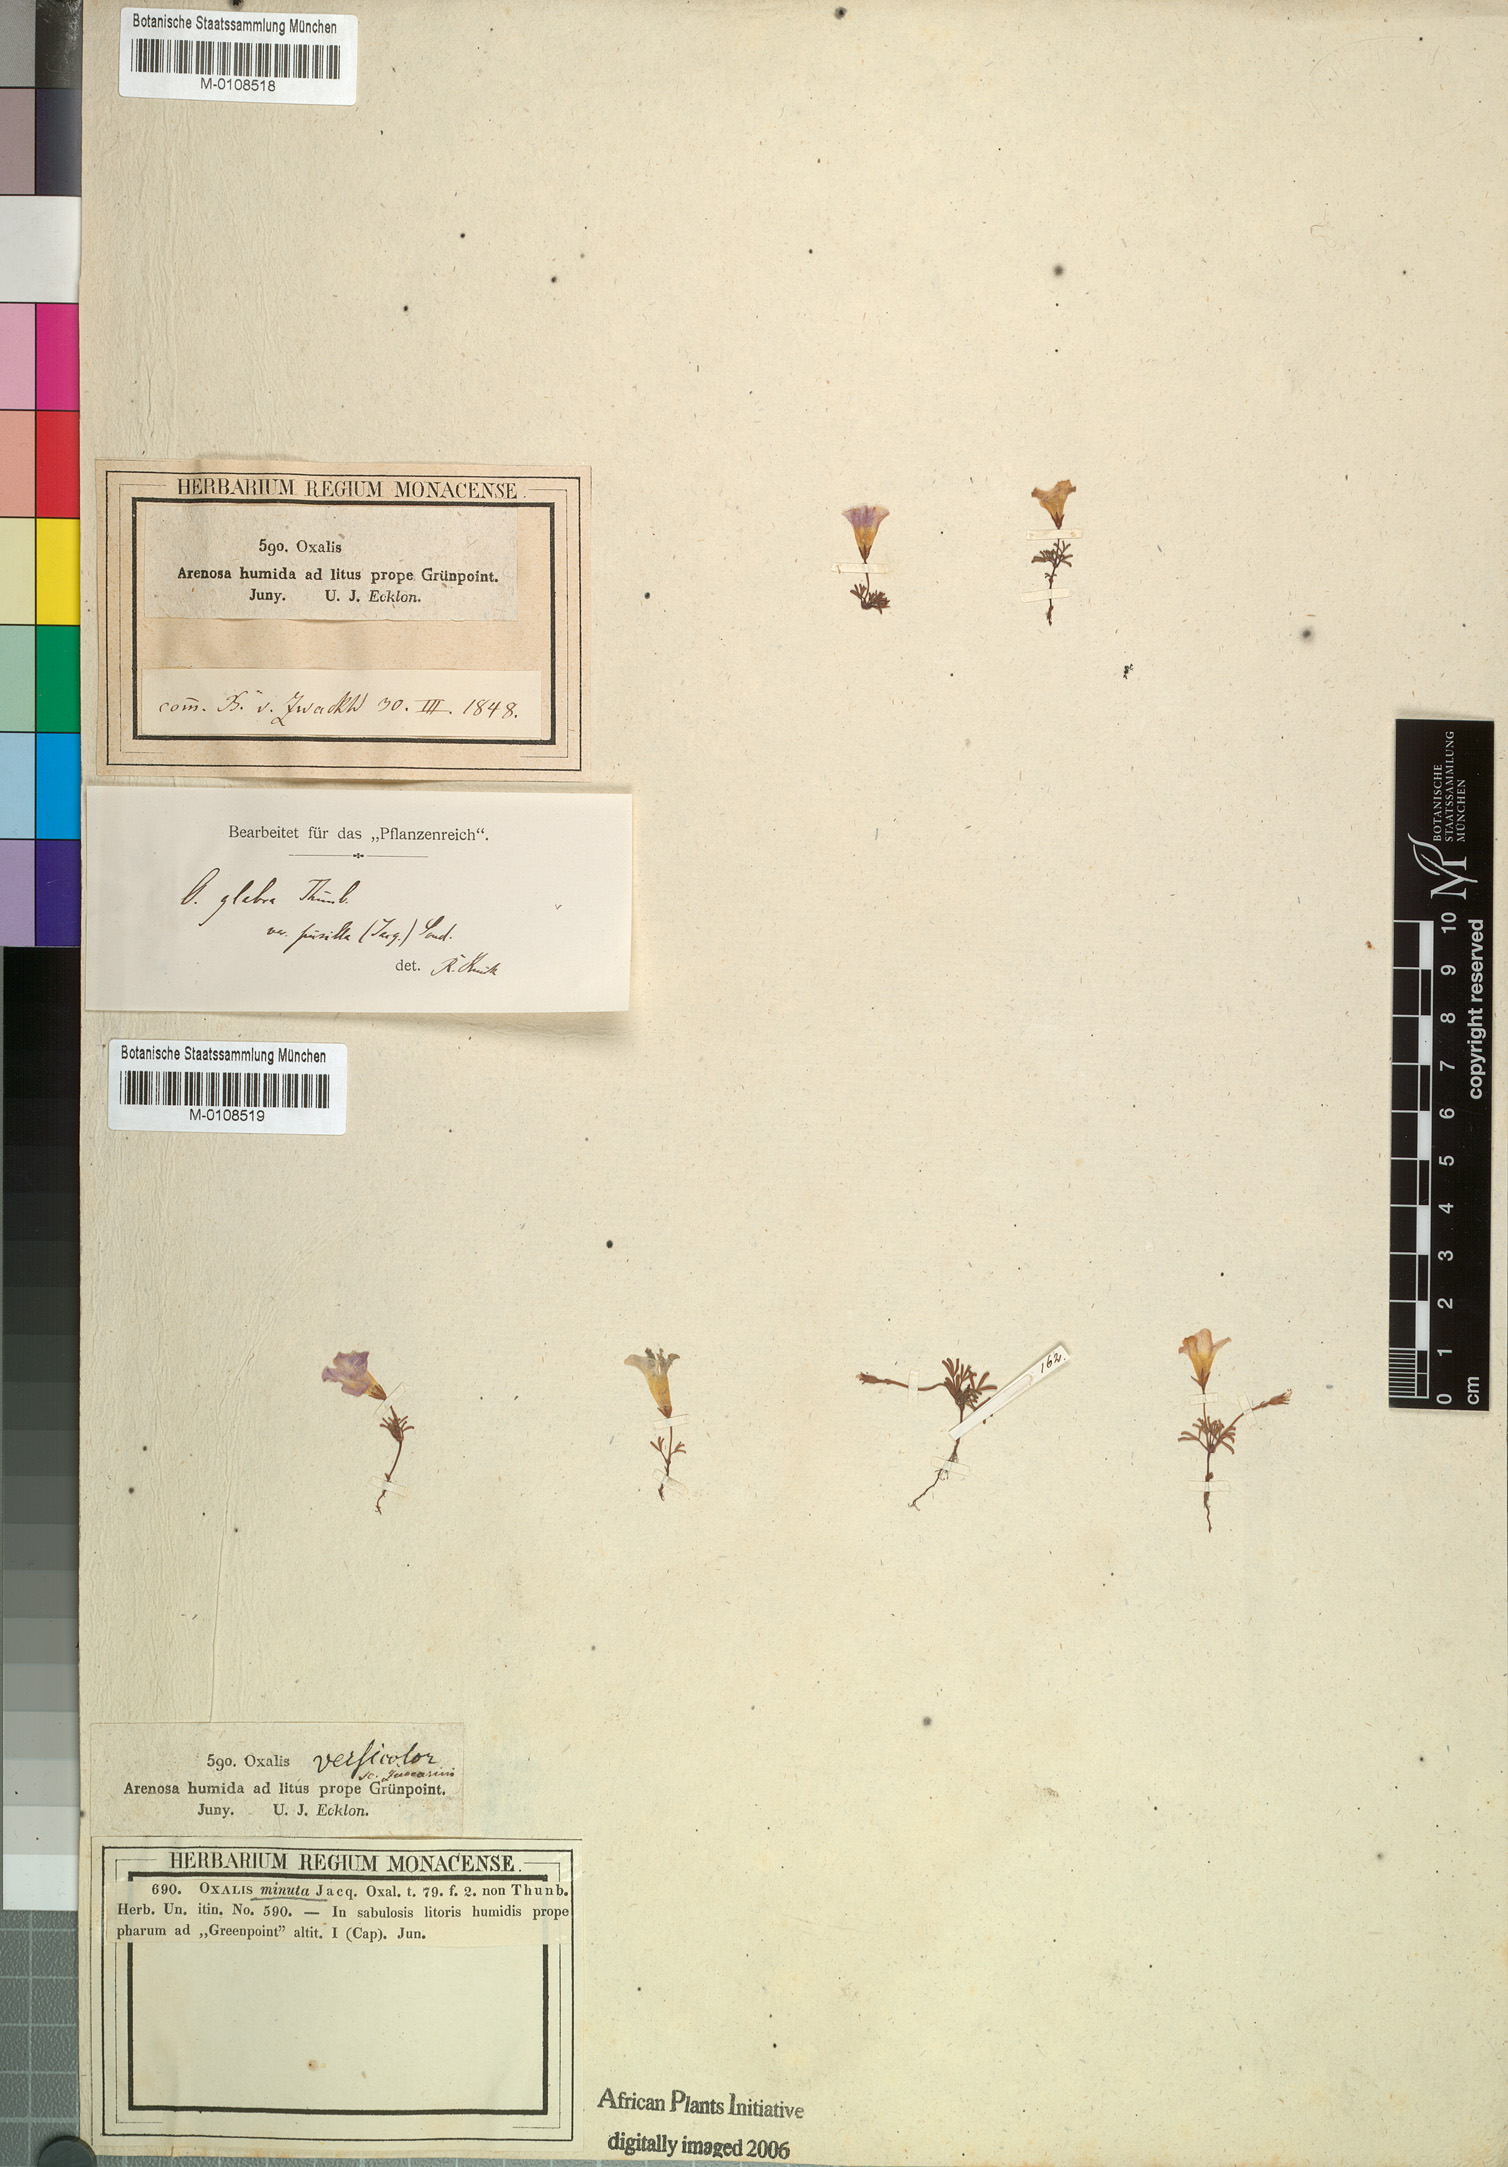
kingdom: Plantae
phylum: Tracheophyta
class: Magnoliopsida
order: Oxalidales
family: Oxalidaceae
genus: Oxalis
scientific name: Oxalis pusilla
